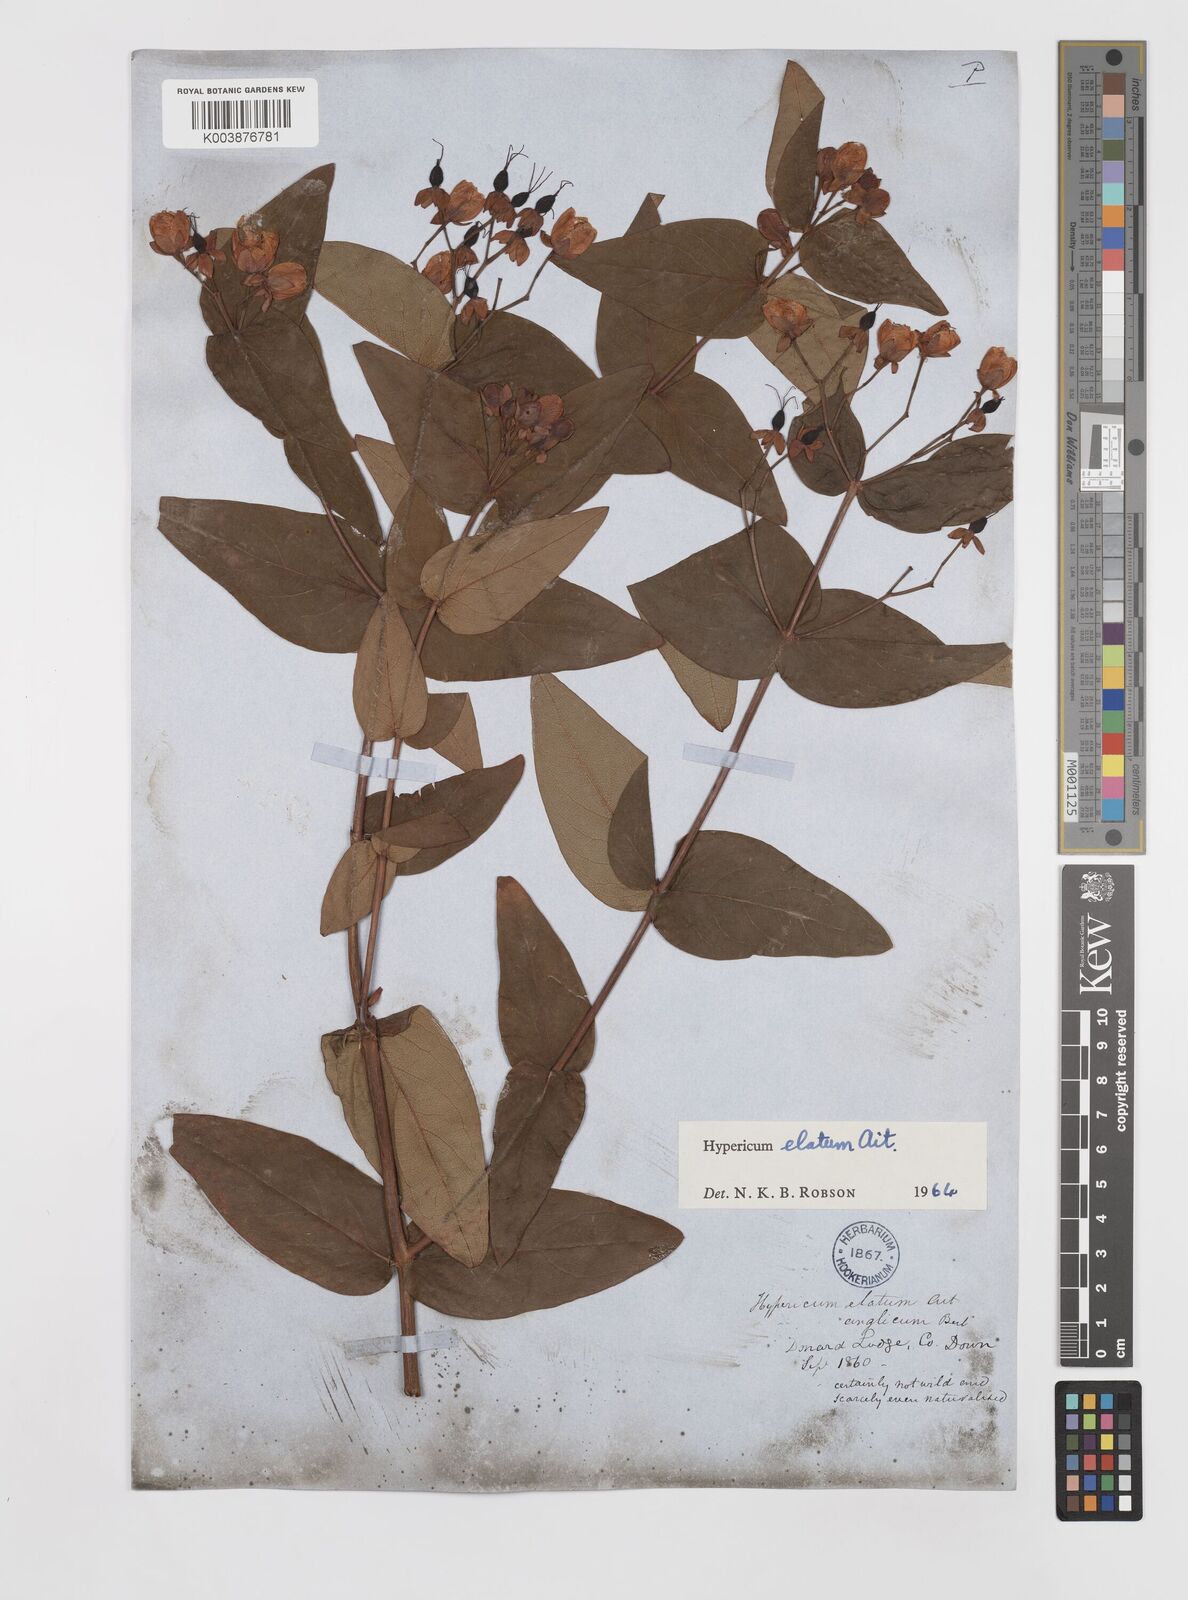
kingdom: Plantae
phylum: Tracheophyta
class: Magnoliopsida
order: Malpighiales
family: Hypericaceae
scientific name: Hypericaceae
